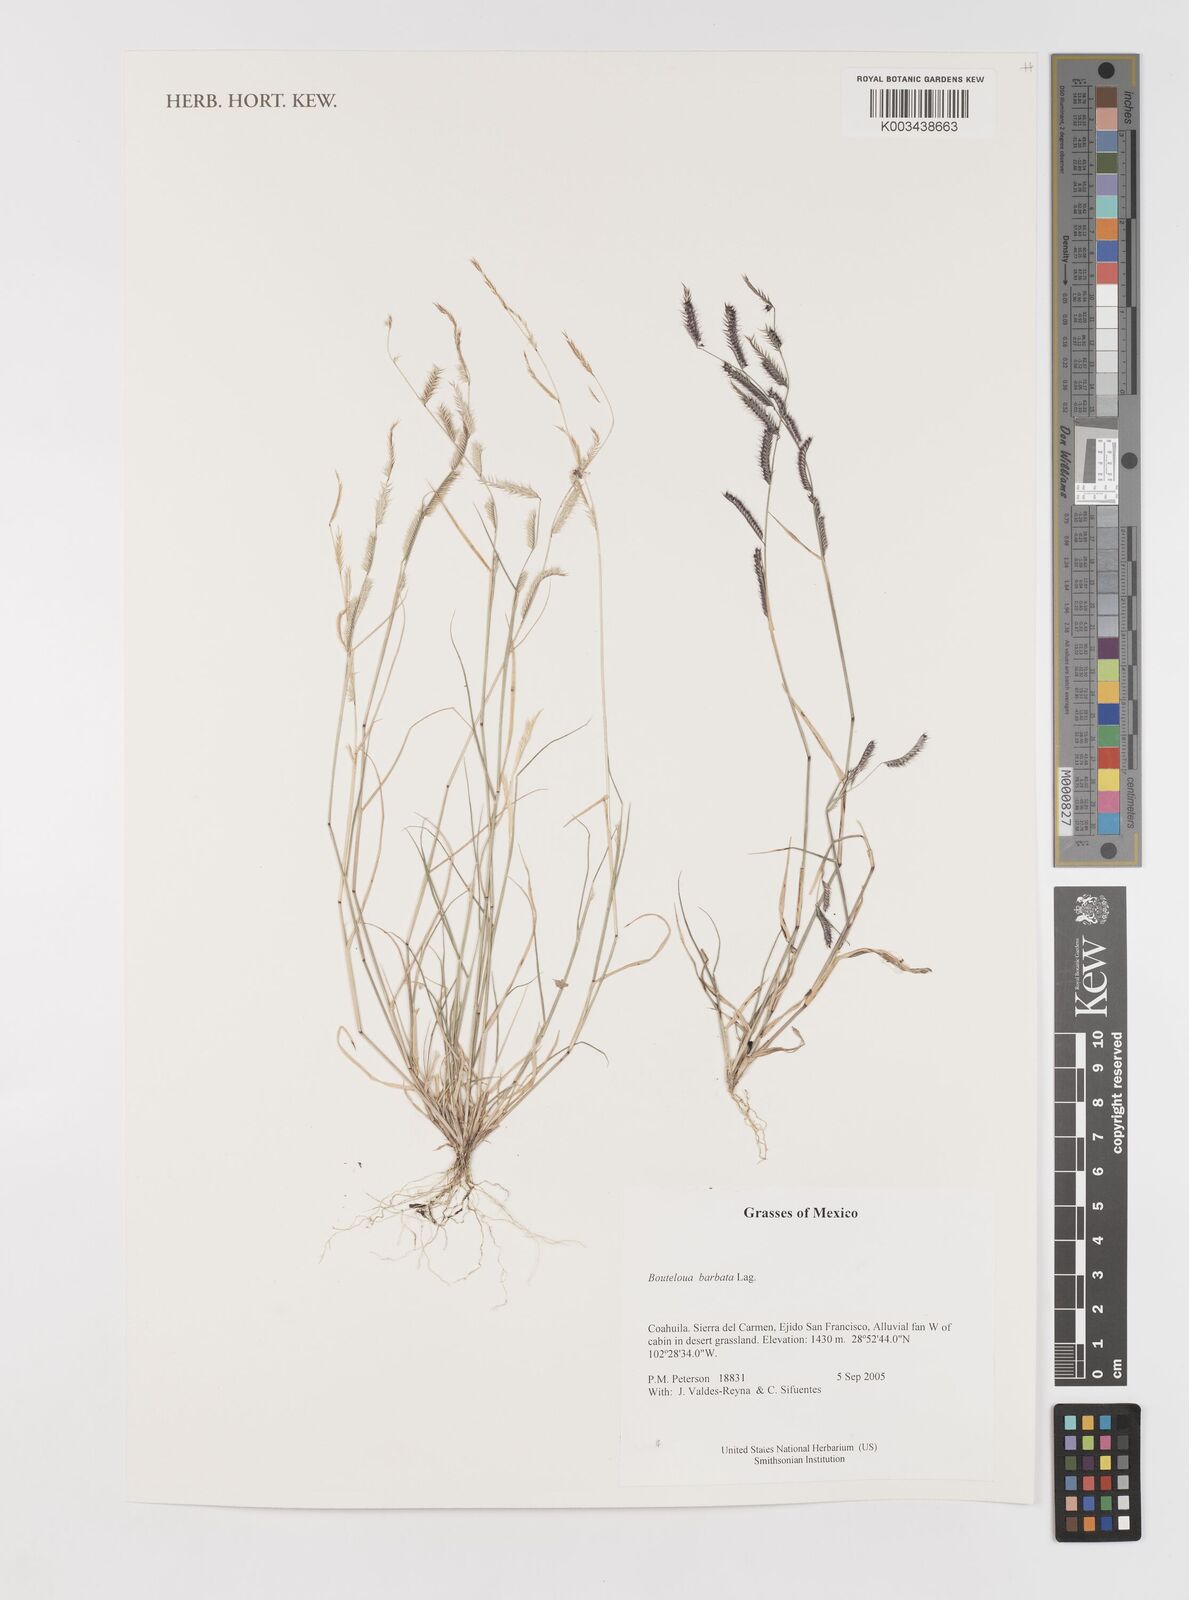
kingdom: Plantae
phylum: Tracheophyta
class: Liliopsida
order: Poales
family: Poaceae
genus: Bouteloua
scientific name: Bouteloua
